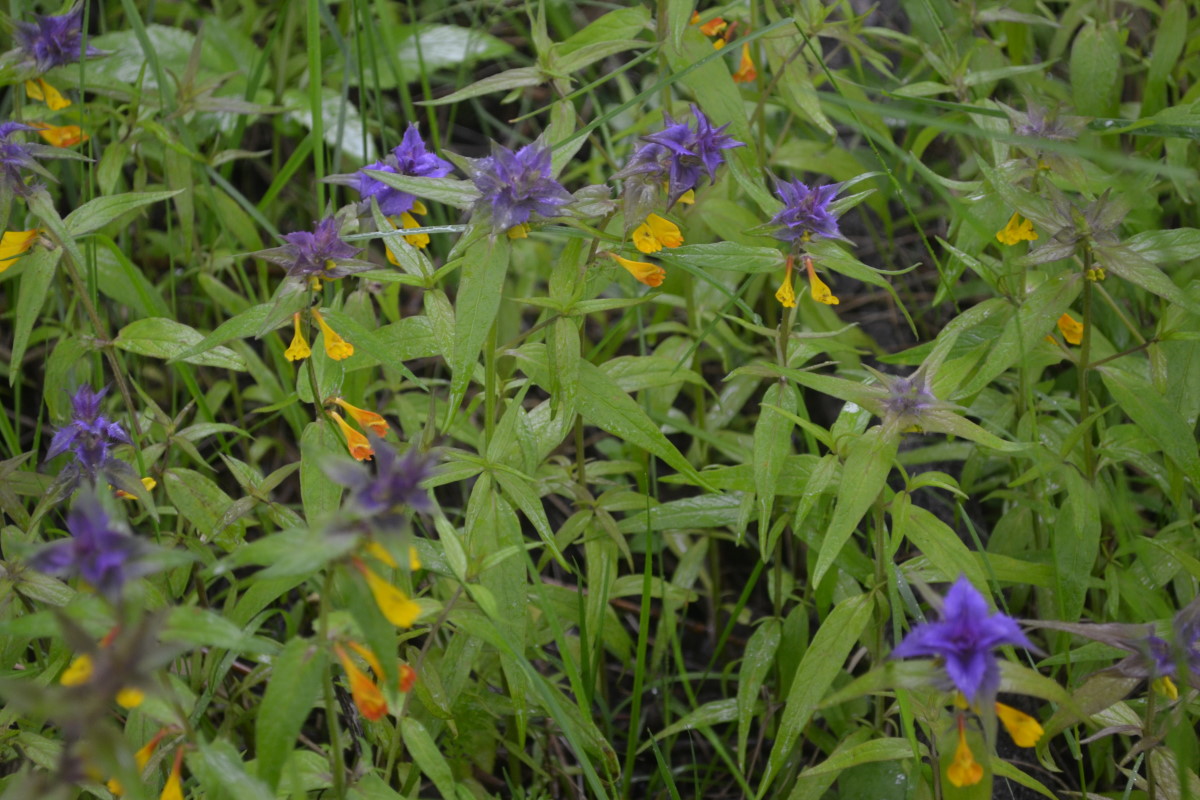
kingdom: Plantae
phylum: Tracheophyta
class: Magnoliopsida
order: Lamiales
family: Orobanchaceae
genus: Melampyrum
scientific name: Melampyrum nemorosum
